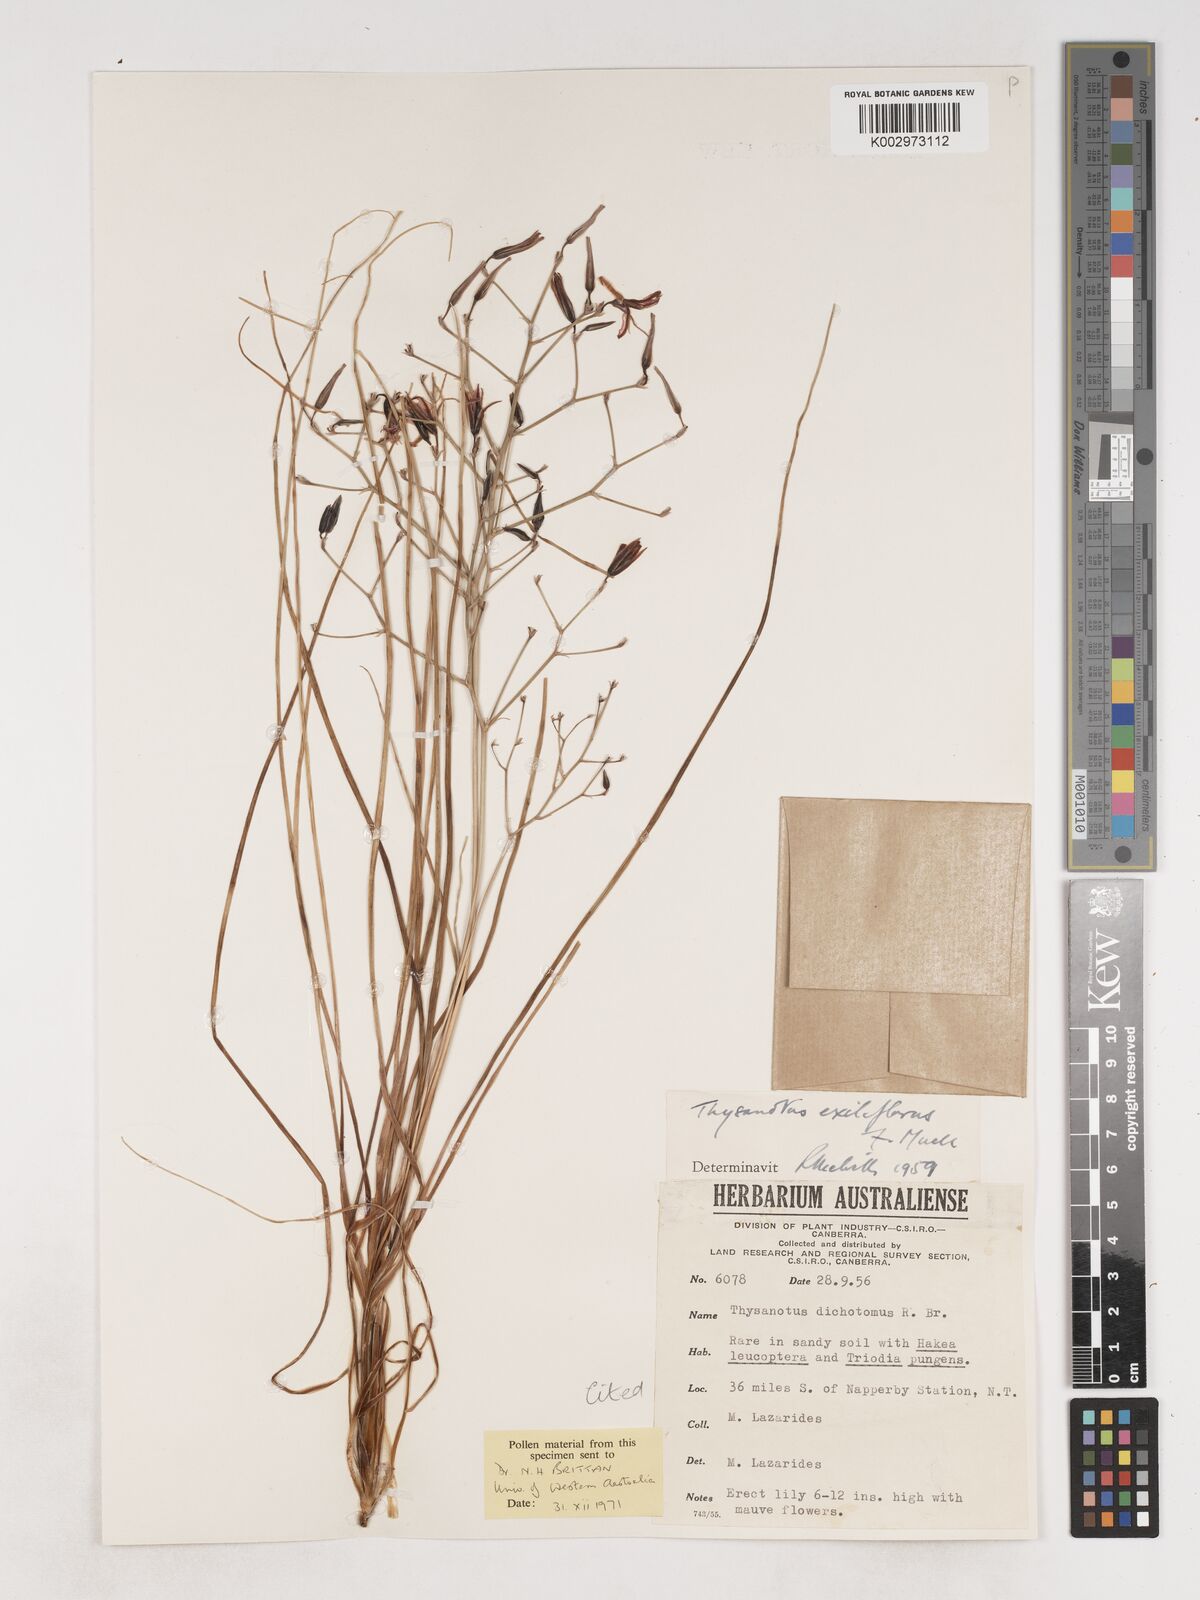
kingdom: Plantae
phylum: Tracheophyta
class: Liliopsida
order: Asparagales
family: Asparagaceae
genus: Thysanotus
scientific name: Thysanotus exiliflorus
